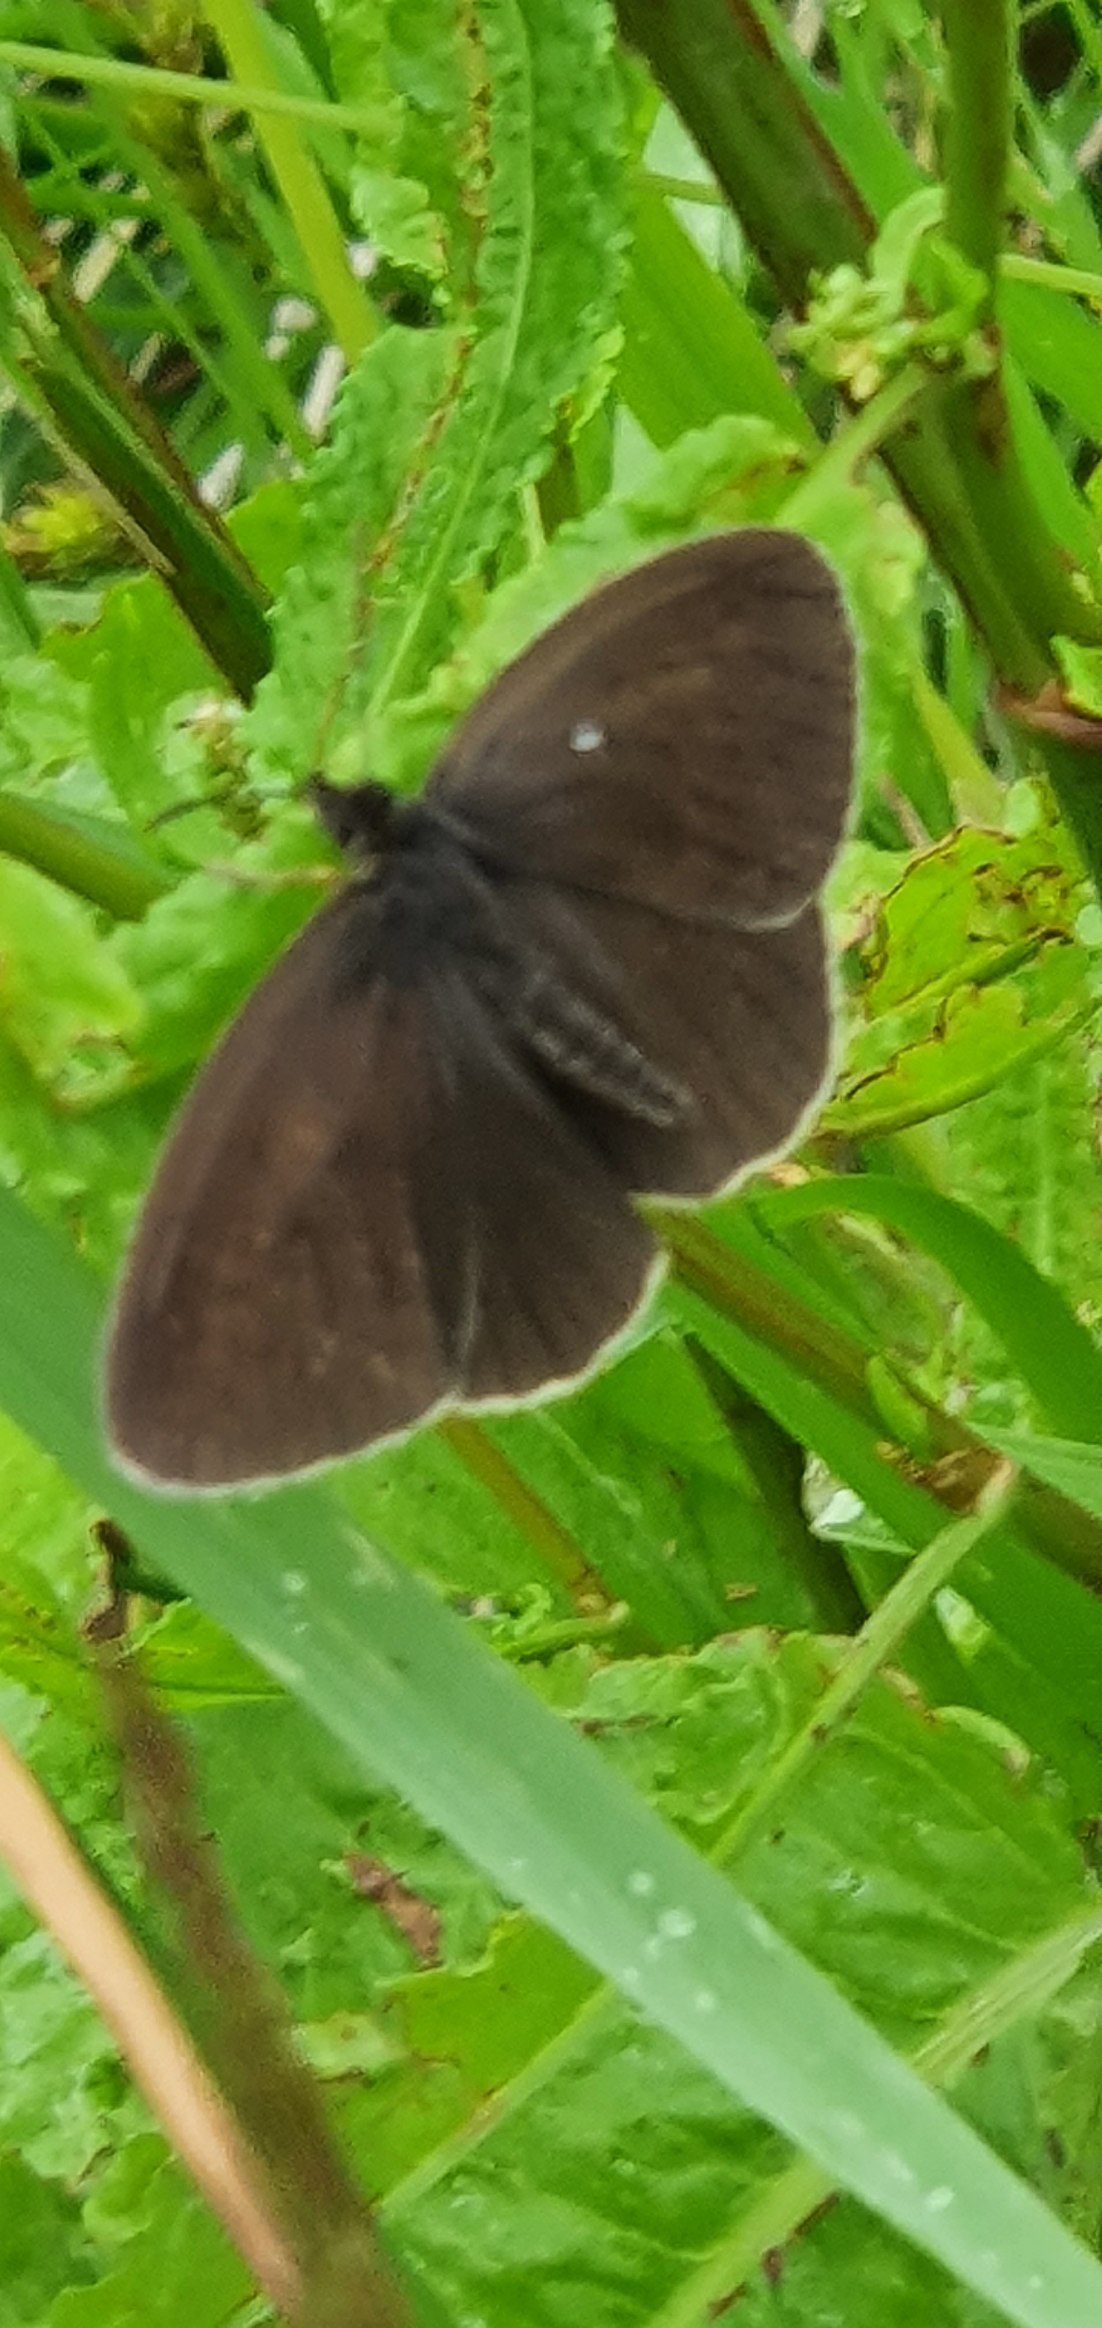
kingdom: Animalia
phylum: Arthropoda
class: Insecta
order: Lepidoptera
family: Nymphalidae
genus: Aphantopus
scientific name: Aphantopus hyperantus
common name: Engrandøje
